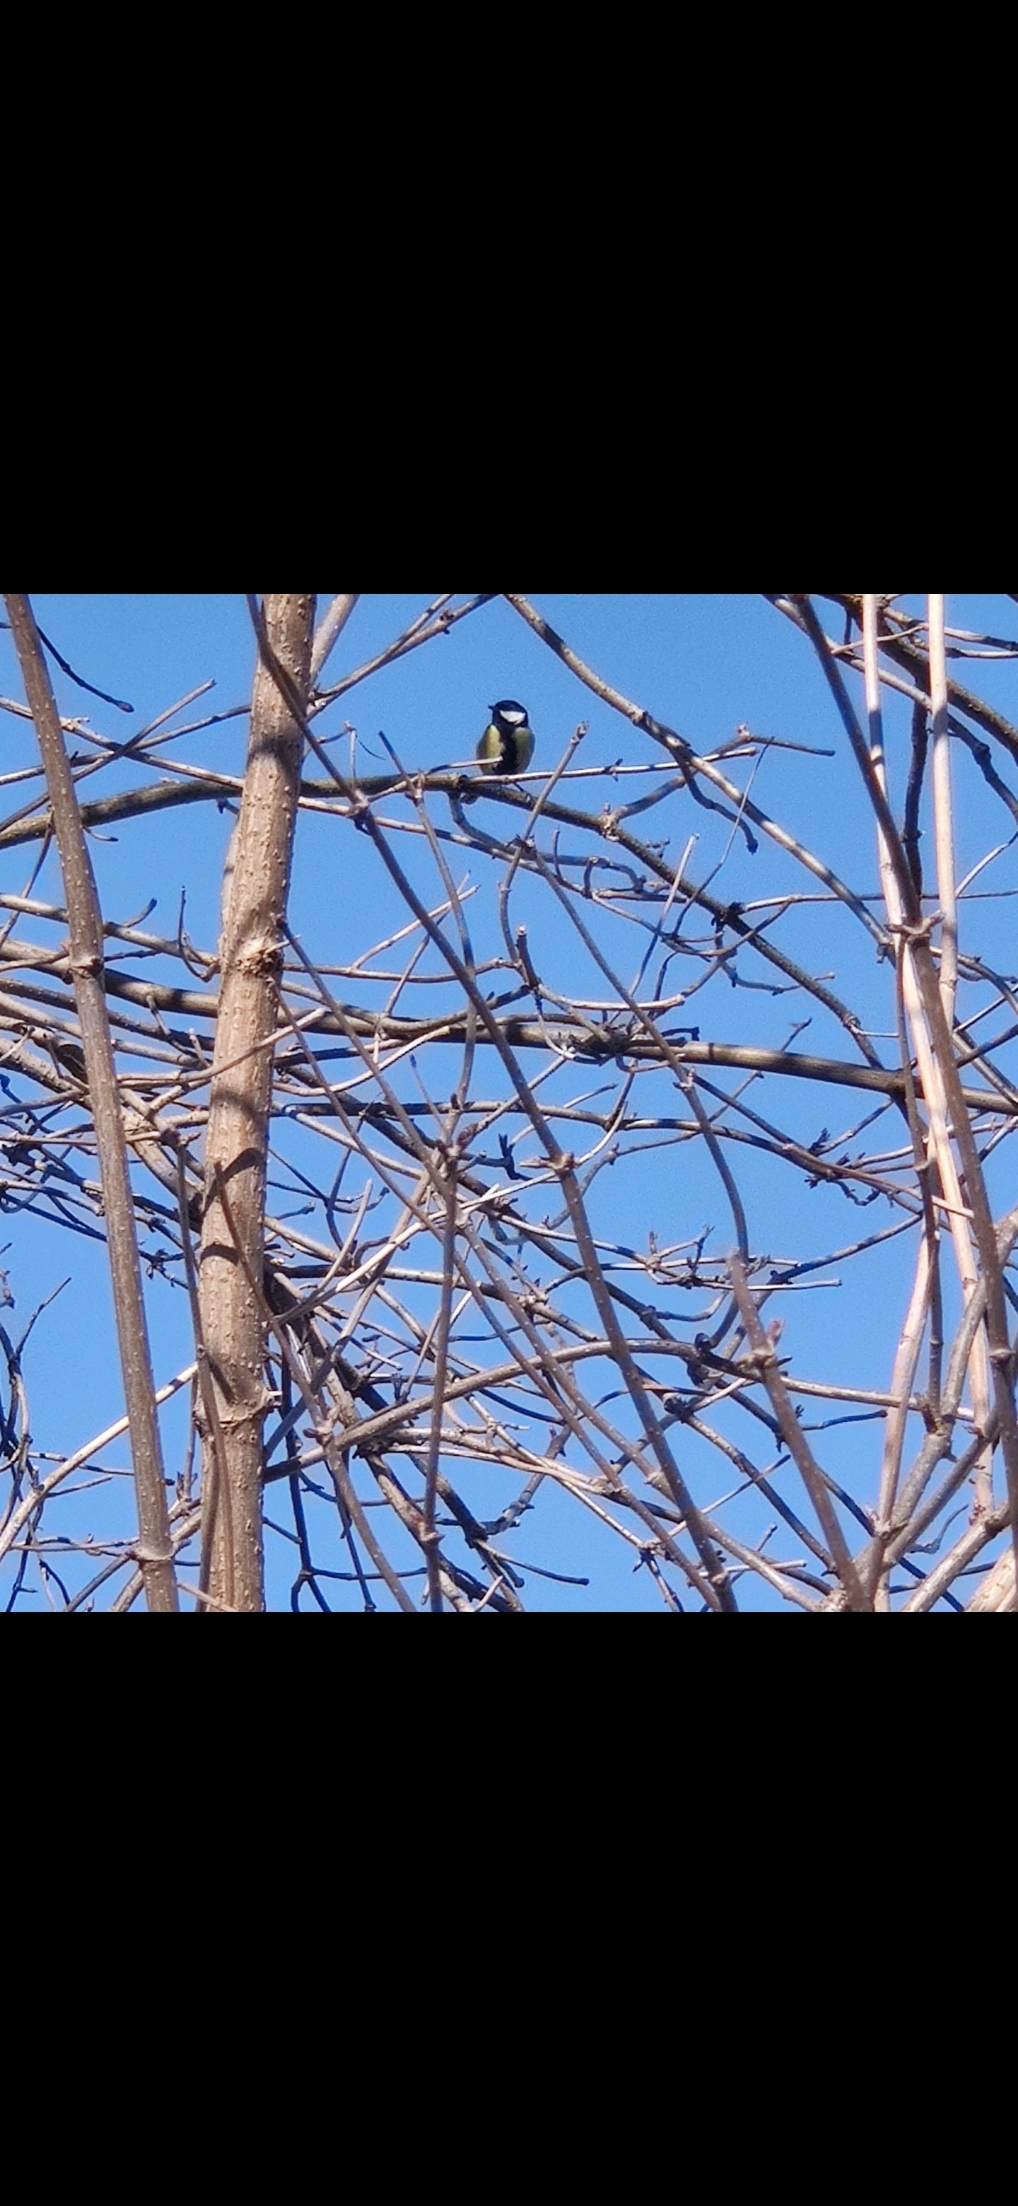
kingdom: Animalia
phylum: Chordata
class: Aves
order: Passeriformes
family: Paridae
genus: Parus
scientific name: Parus major
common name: Musvit
